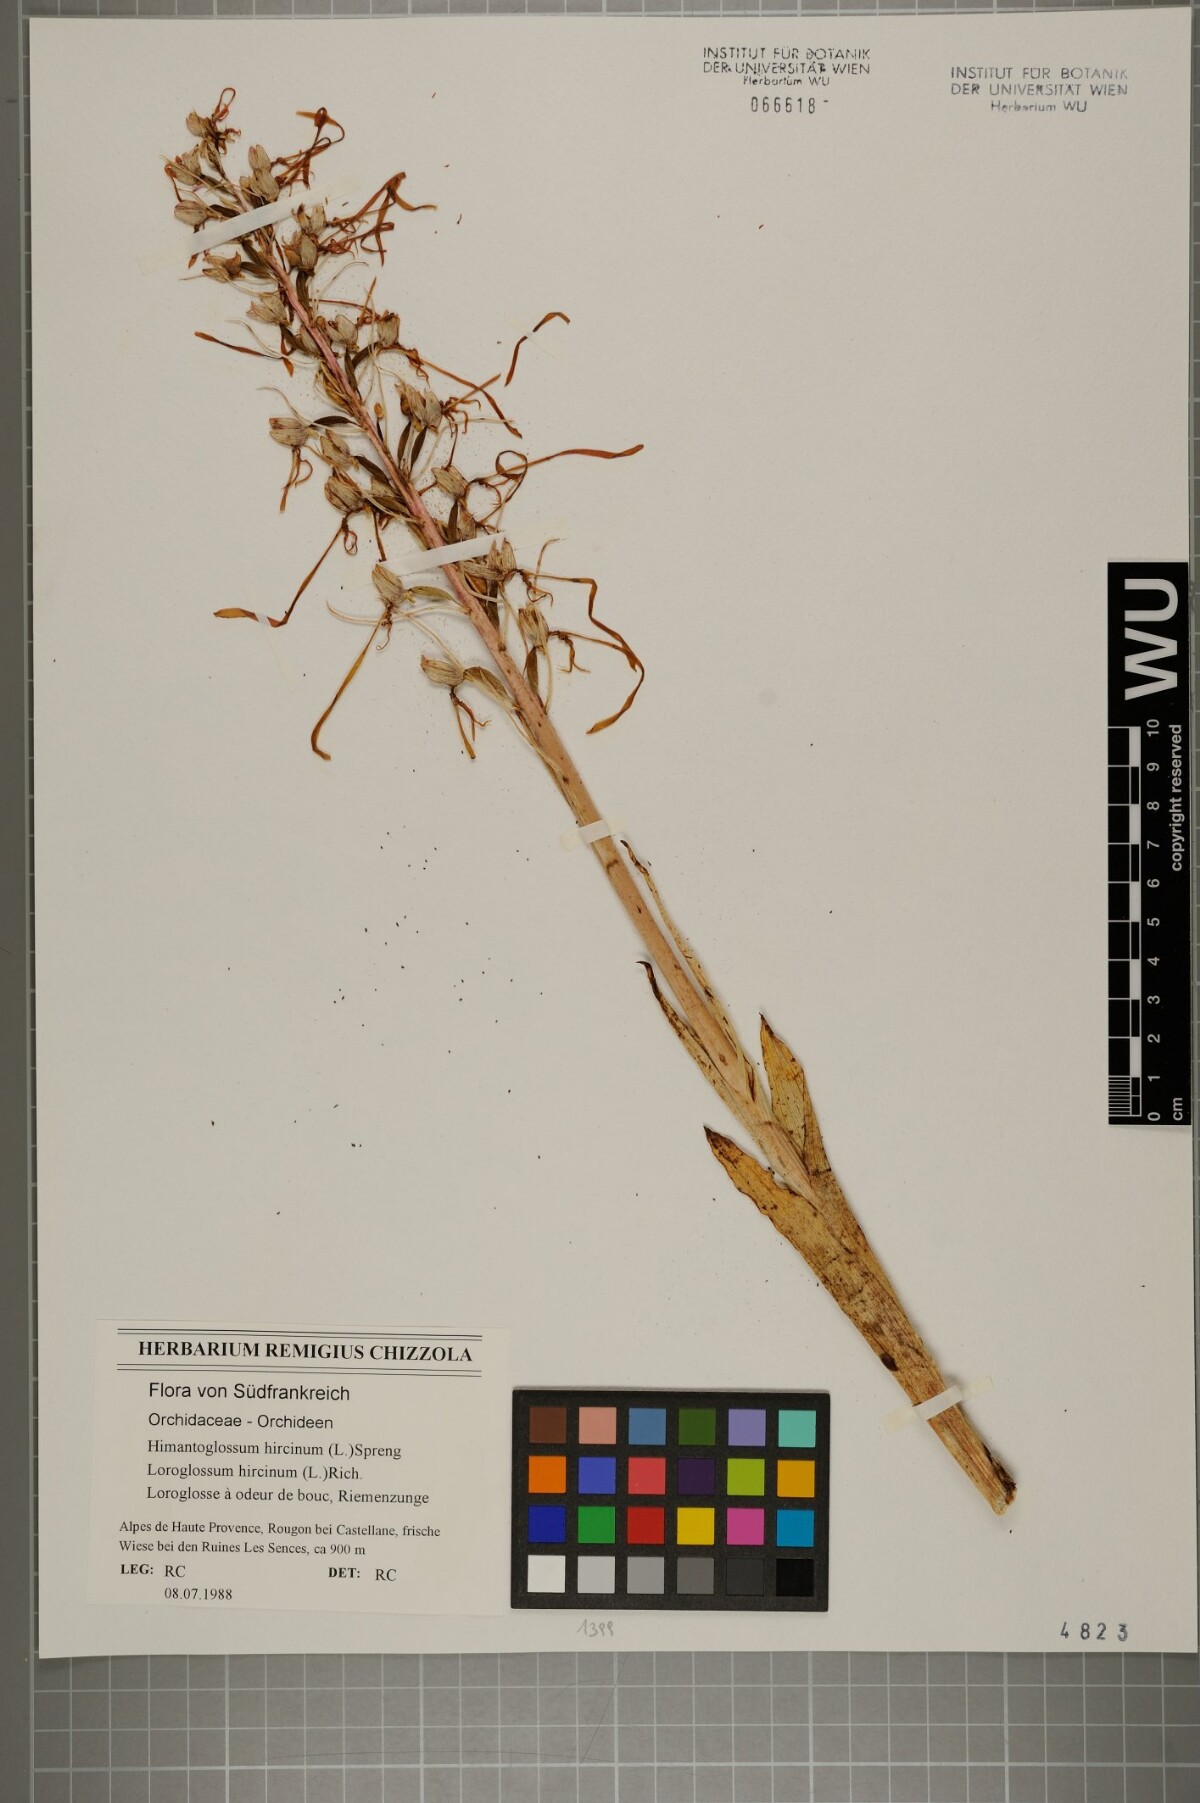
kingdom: Plantae
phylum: Tracheophyta
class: Liliopsida
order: Asparagales
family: Orchidaceae
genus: Himantoglossum
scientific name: Himantoglossum hircinum
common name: Lizard orchid
